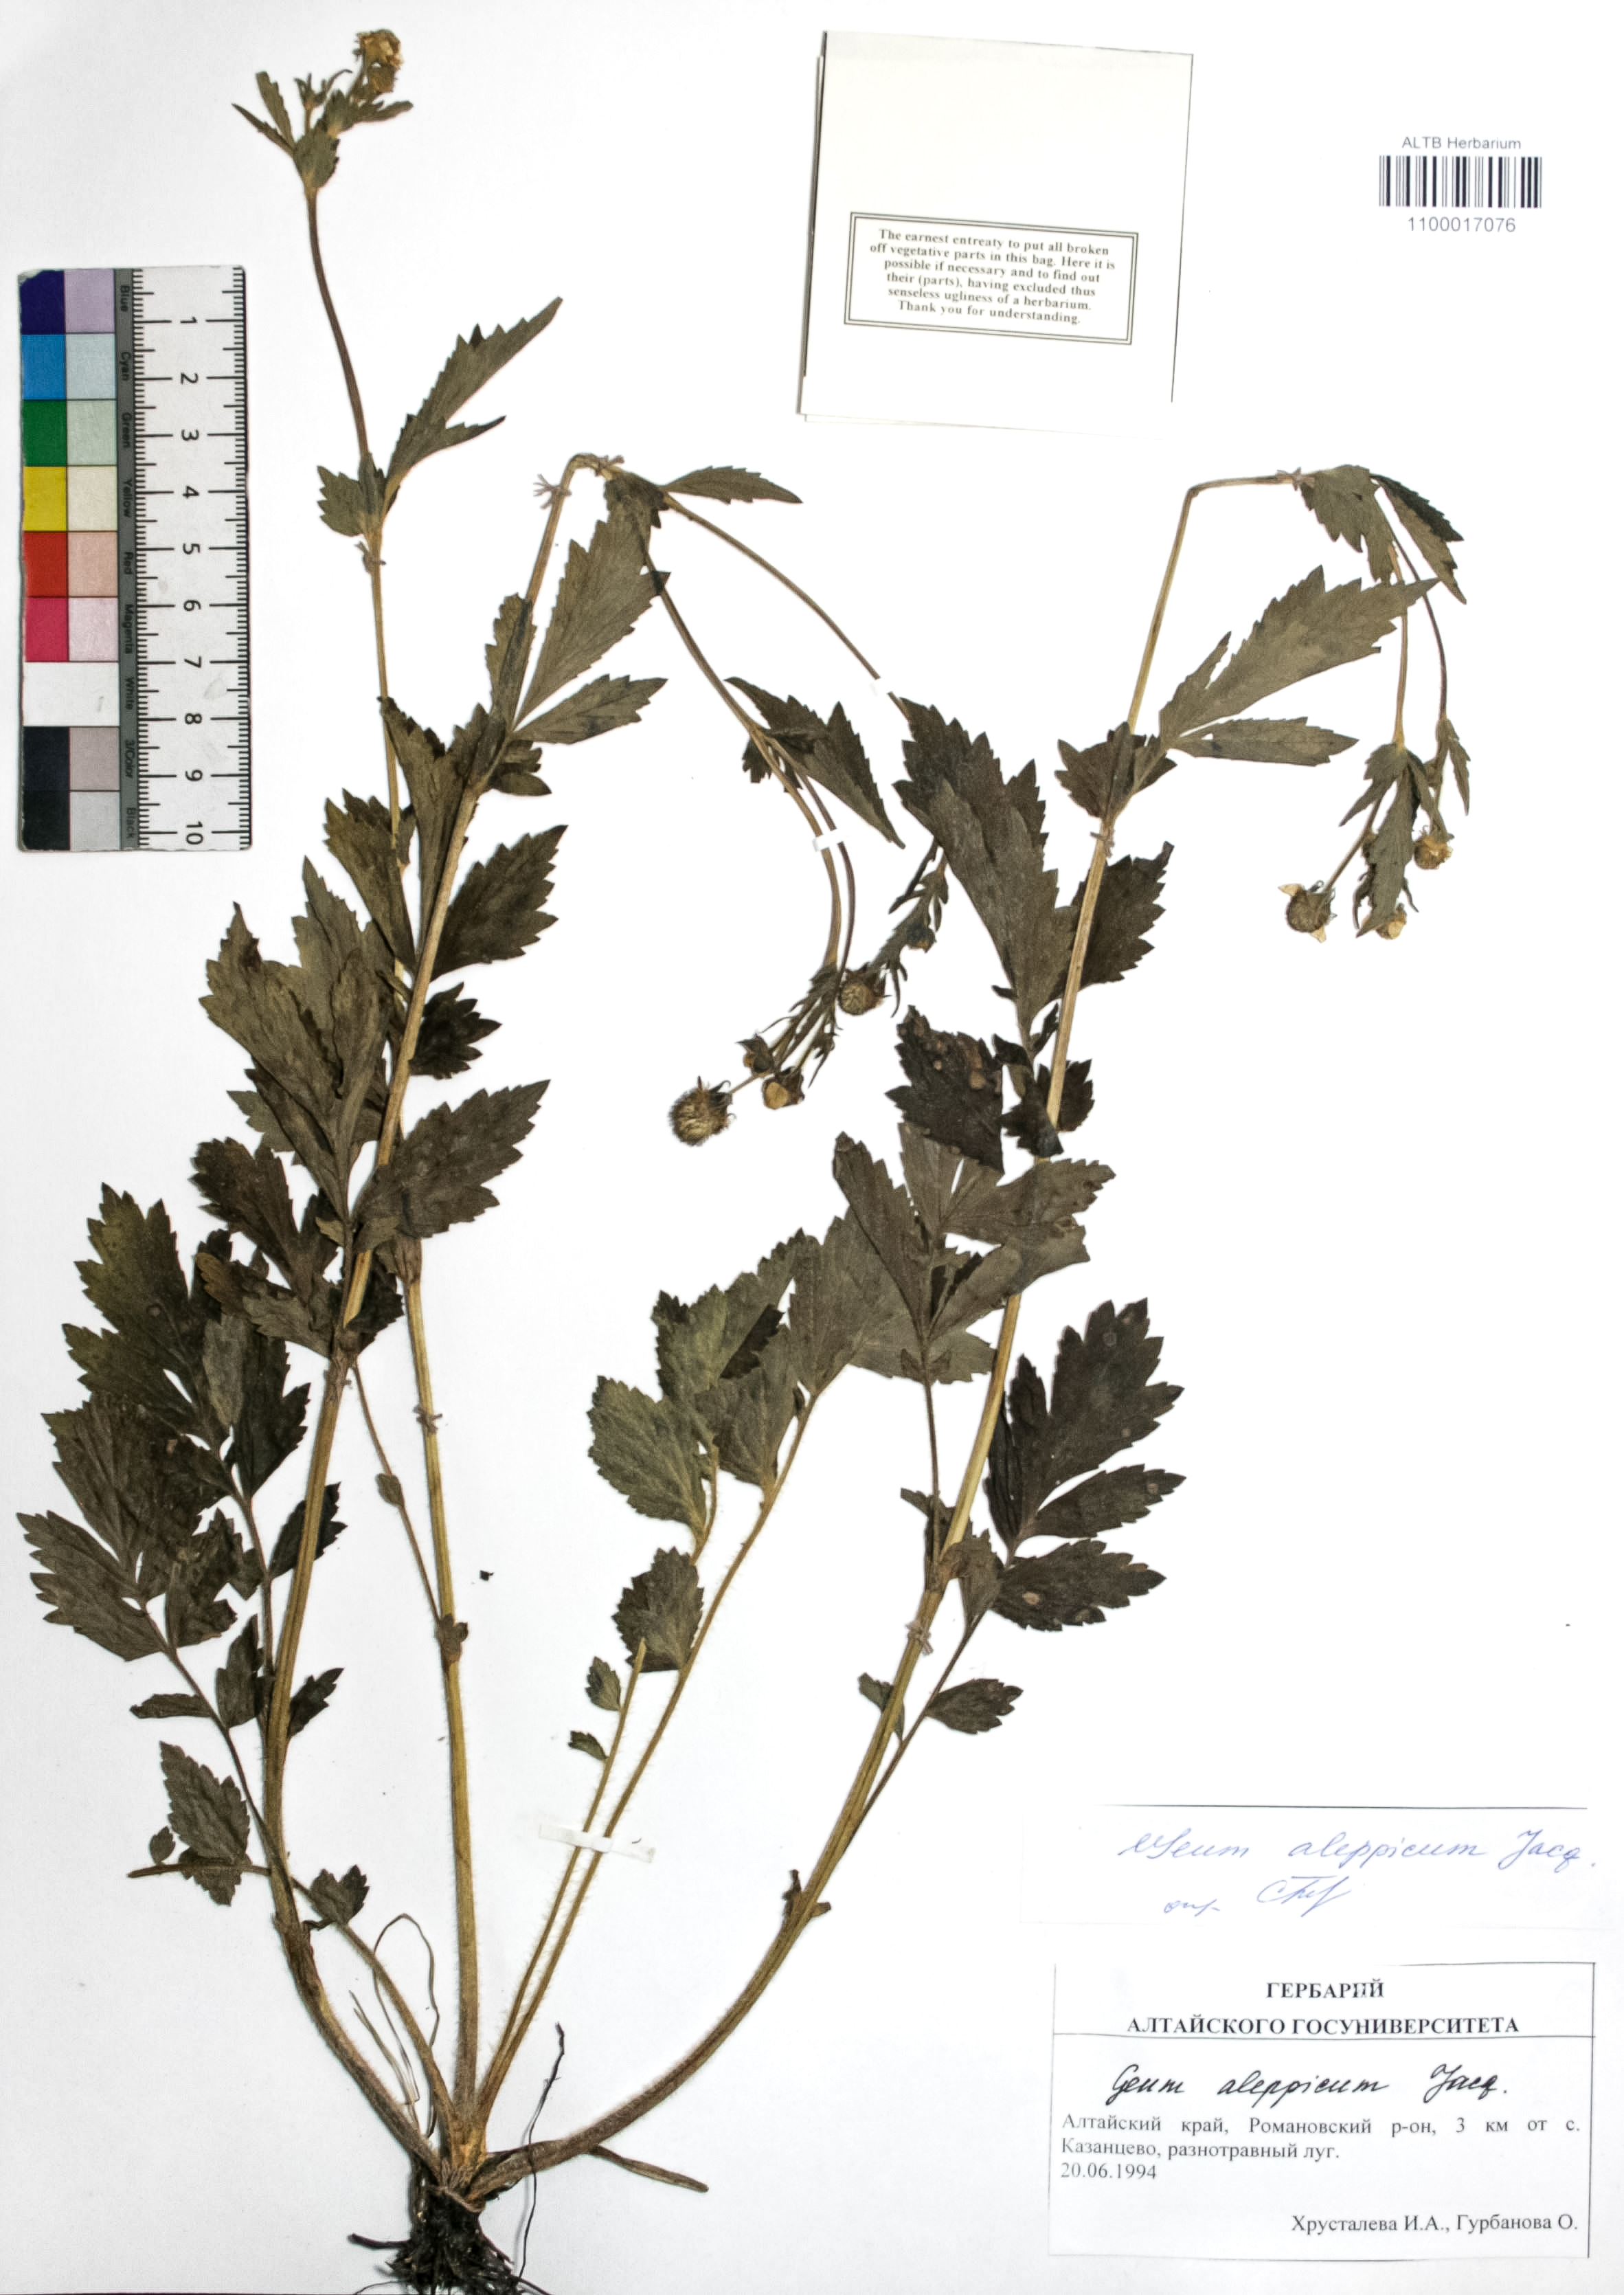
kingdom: Plantae
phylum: Tracheophyta
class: Magnoliopsida
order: Rosales
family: Rosaceae
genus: Geum
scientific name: Geum aleppicum
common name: Yellow avens
